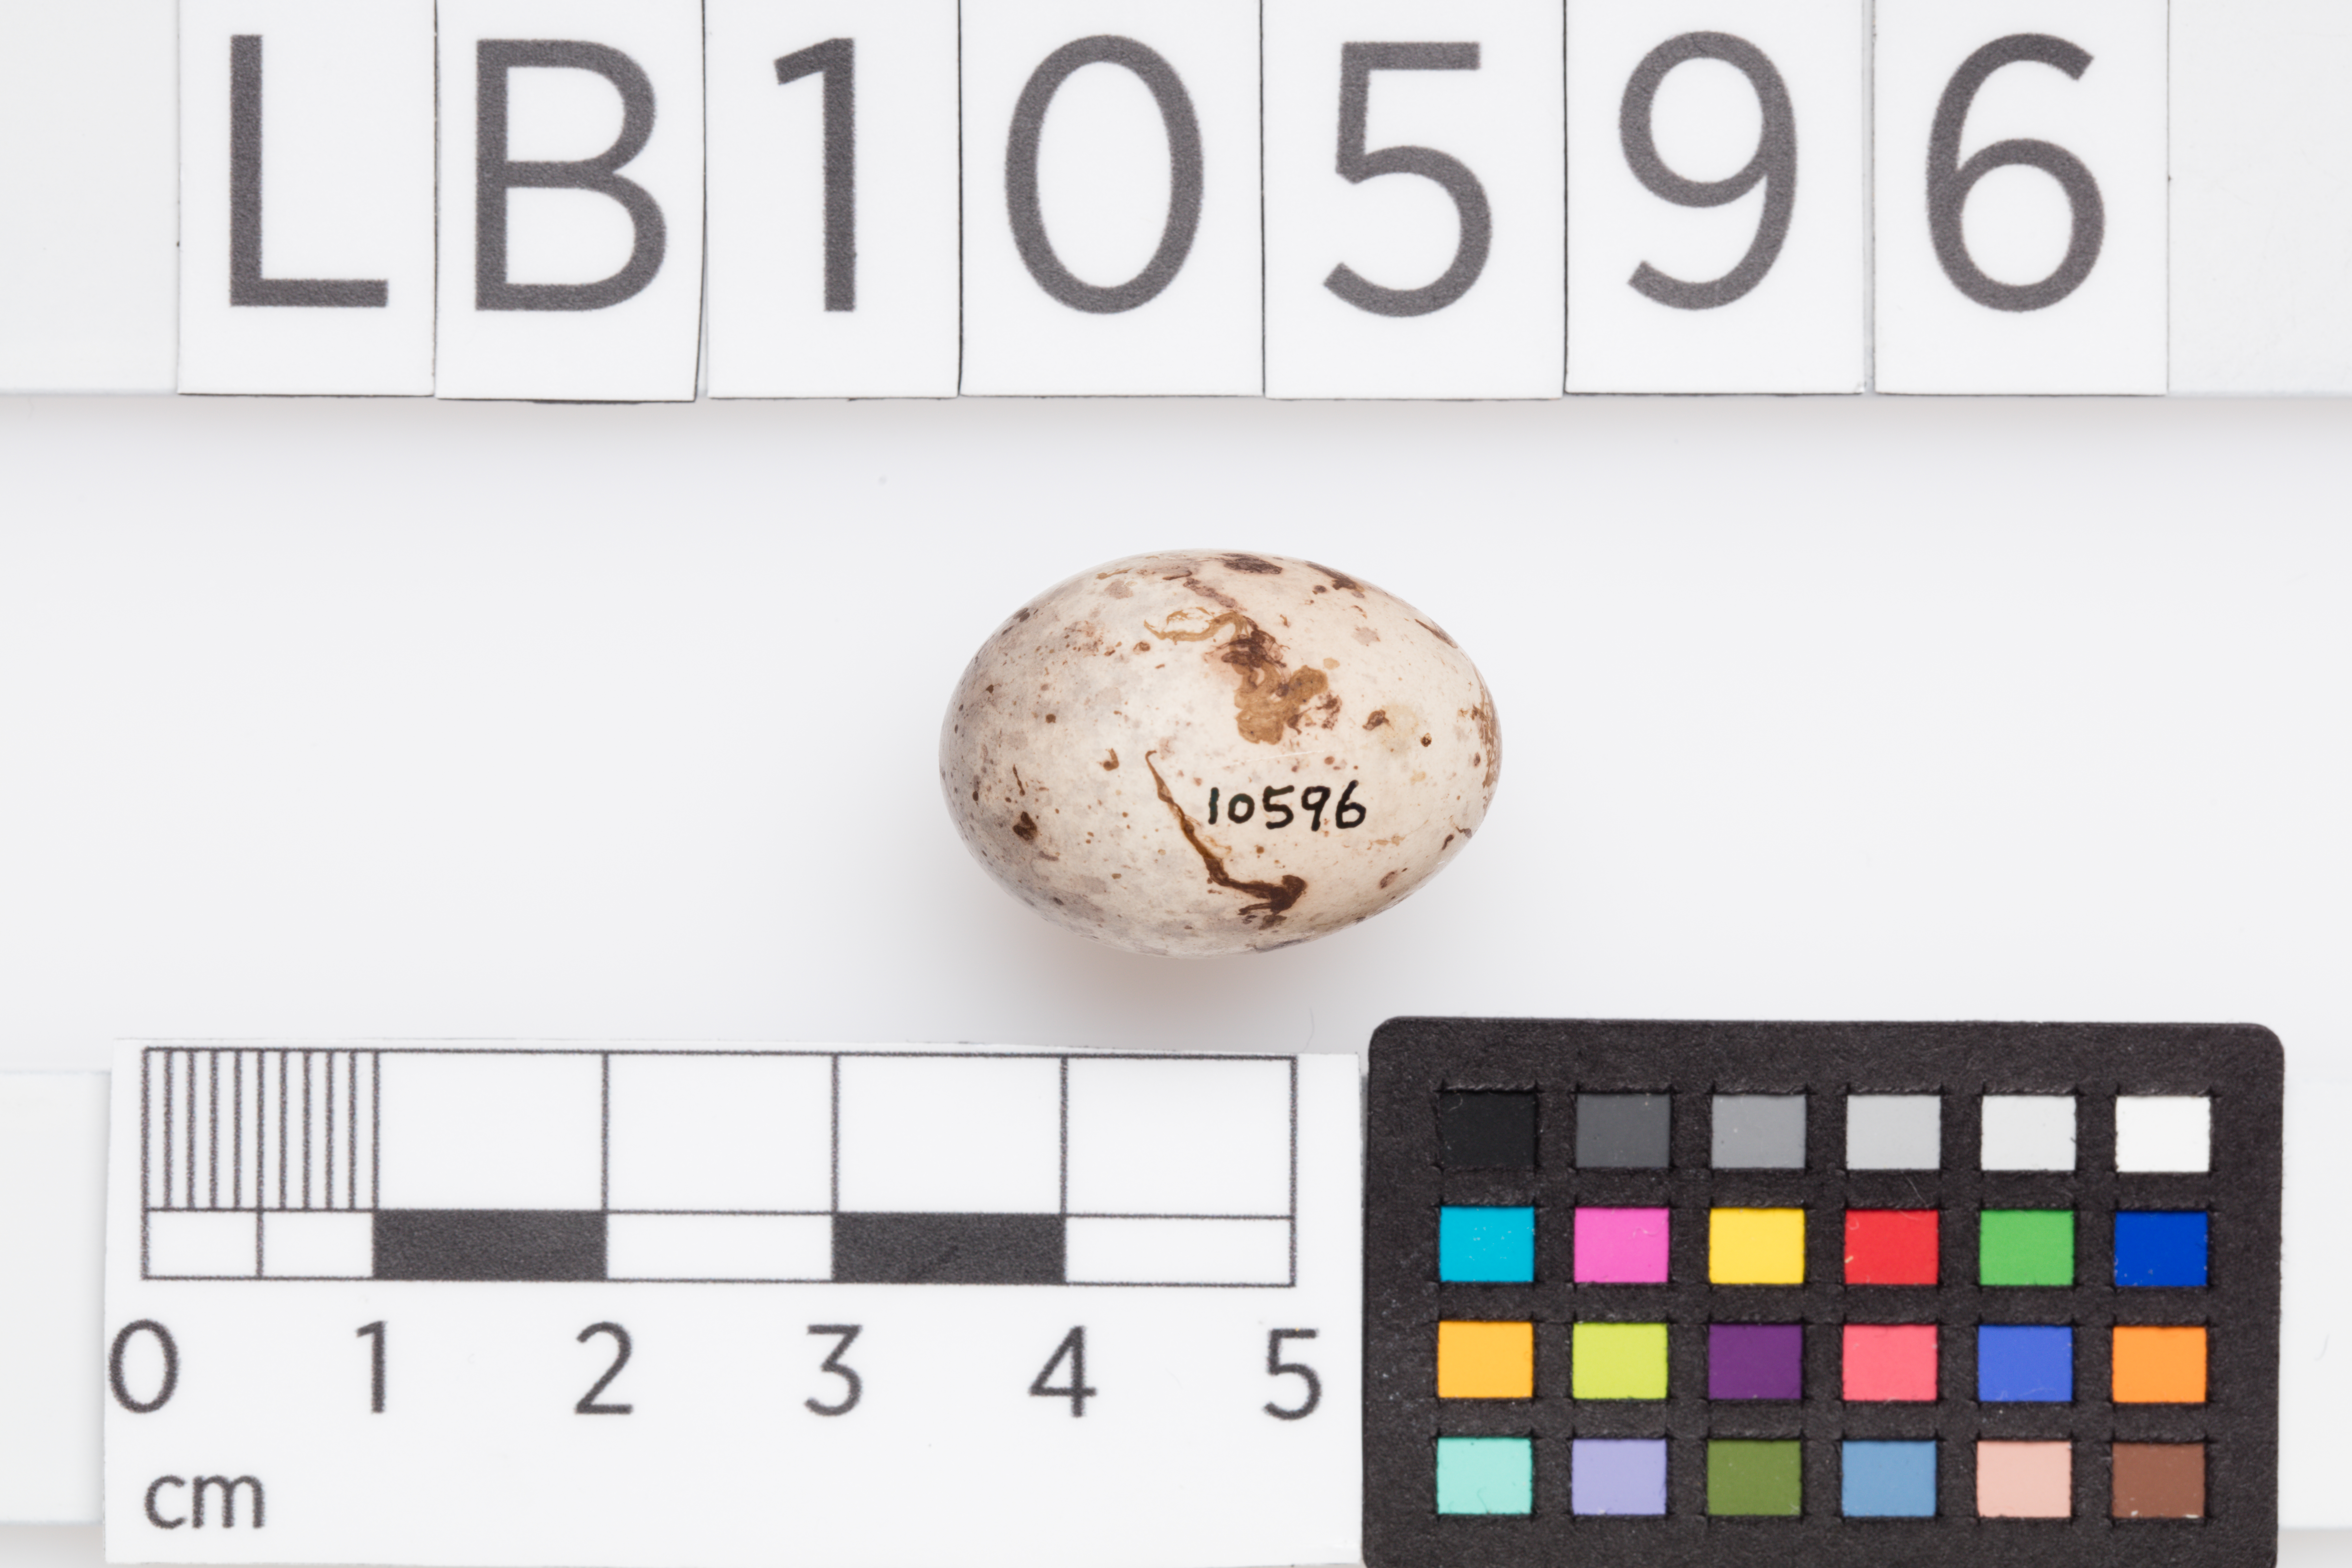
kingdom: Animalia
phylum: Chordata
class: Aves
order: Passeriformes
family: Emberizidae
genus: Emberiza
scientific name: Emberiza calandra
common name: Corn bunting
